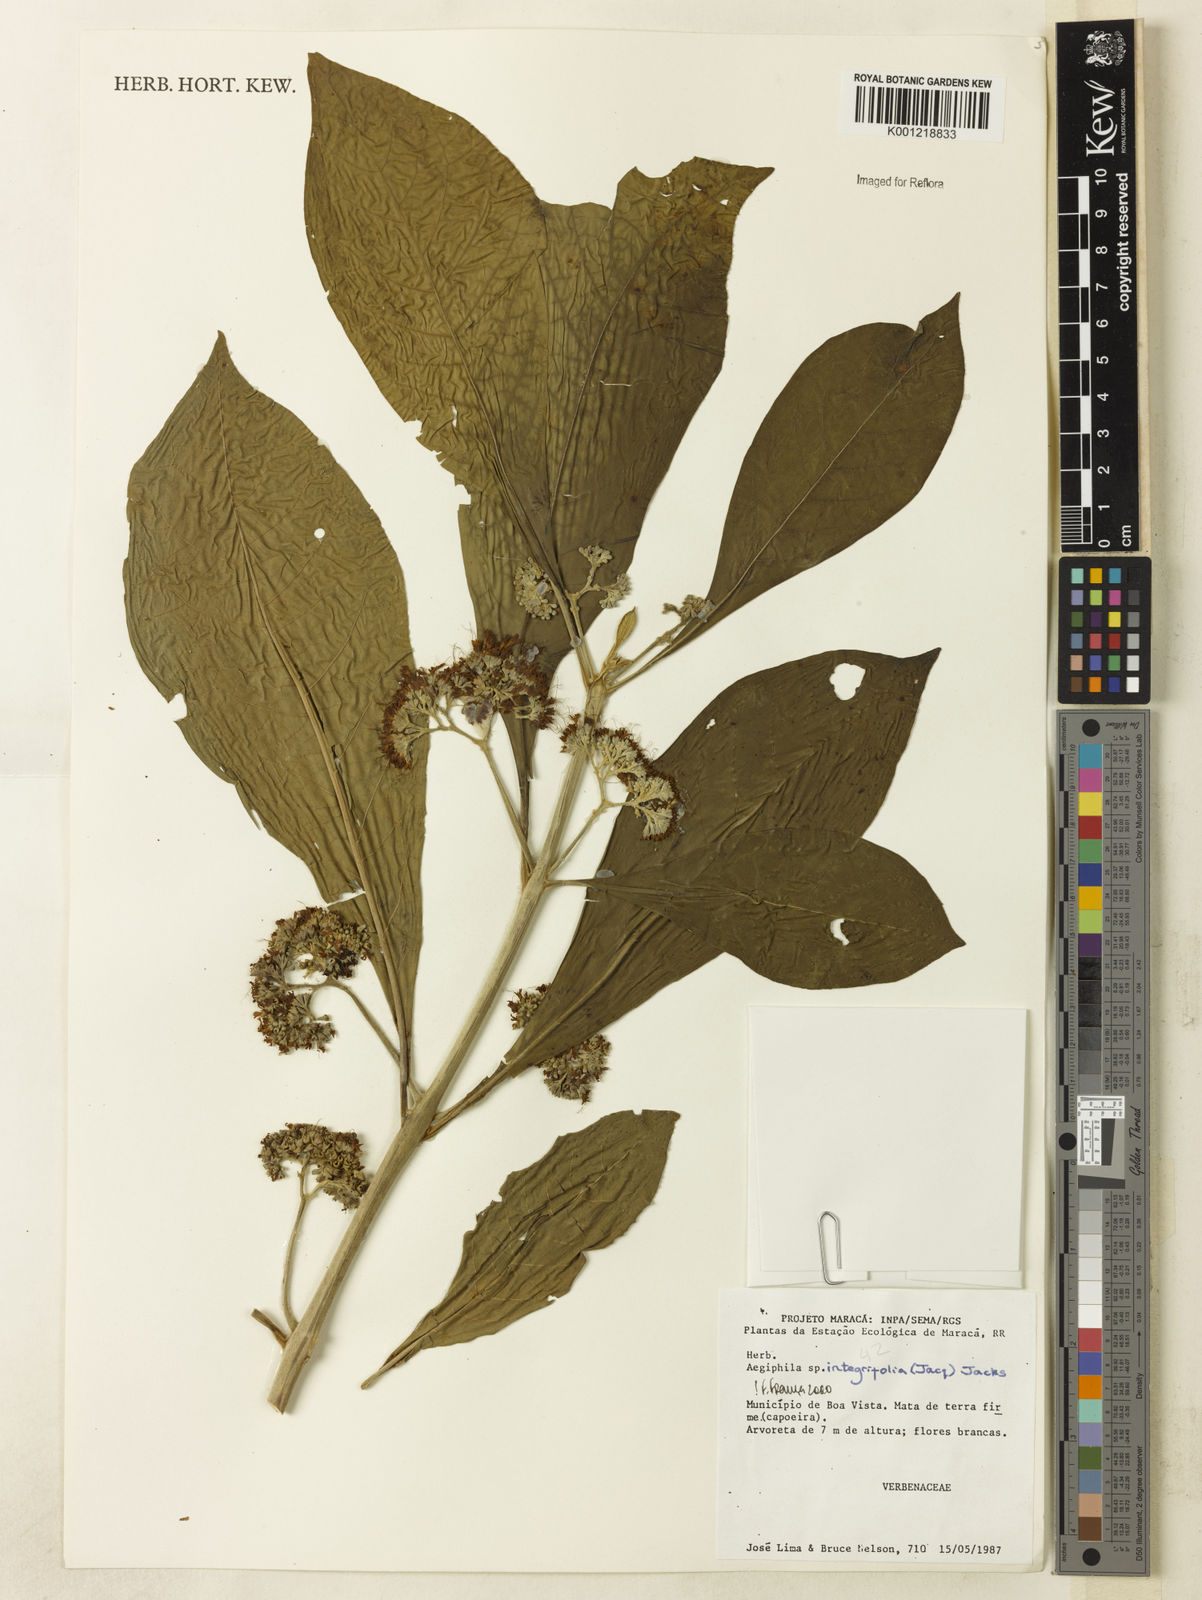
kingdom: Plantae
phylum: Tracheophyta
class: Magnoliopsida
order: Lamiales
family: Lamiaceae
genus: Aegiphila
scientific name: Aegiphila
